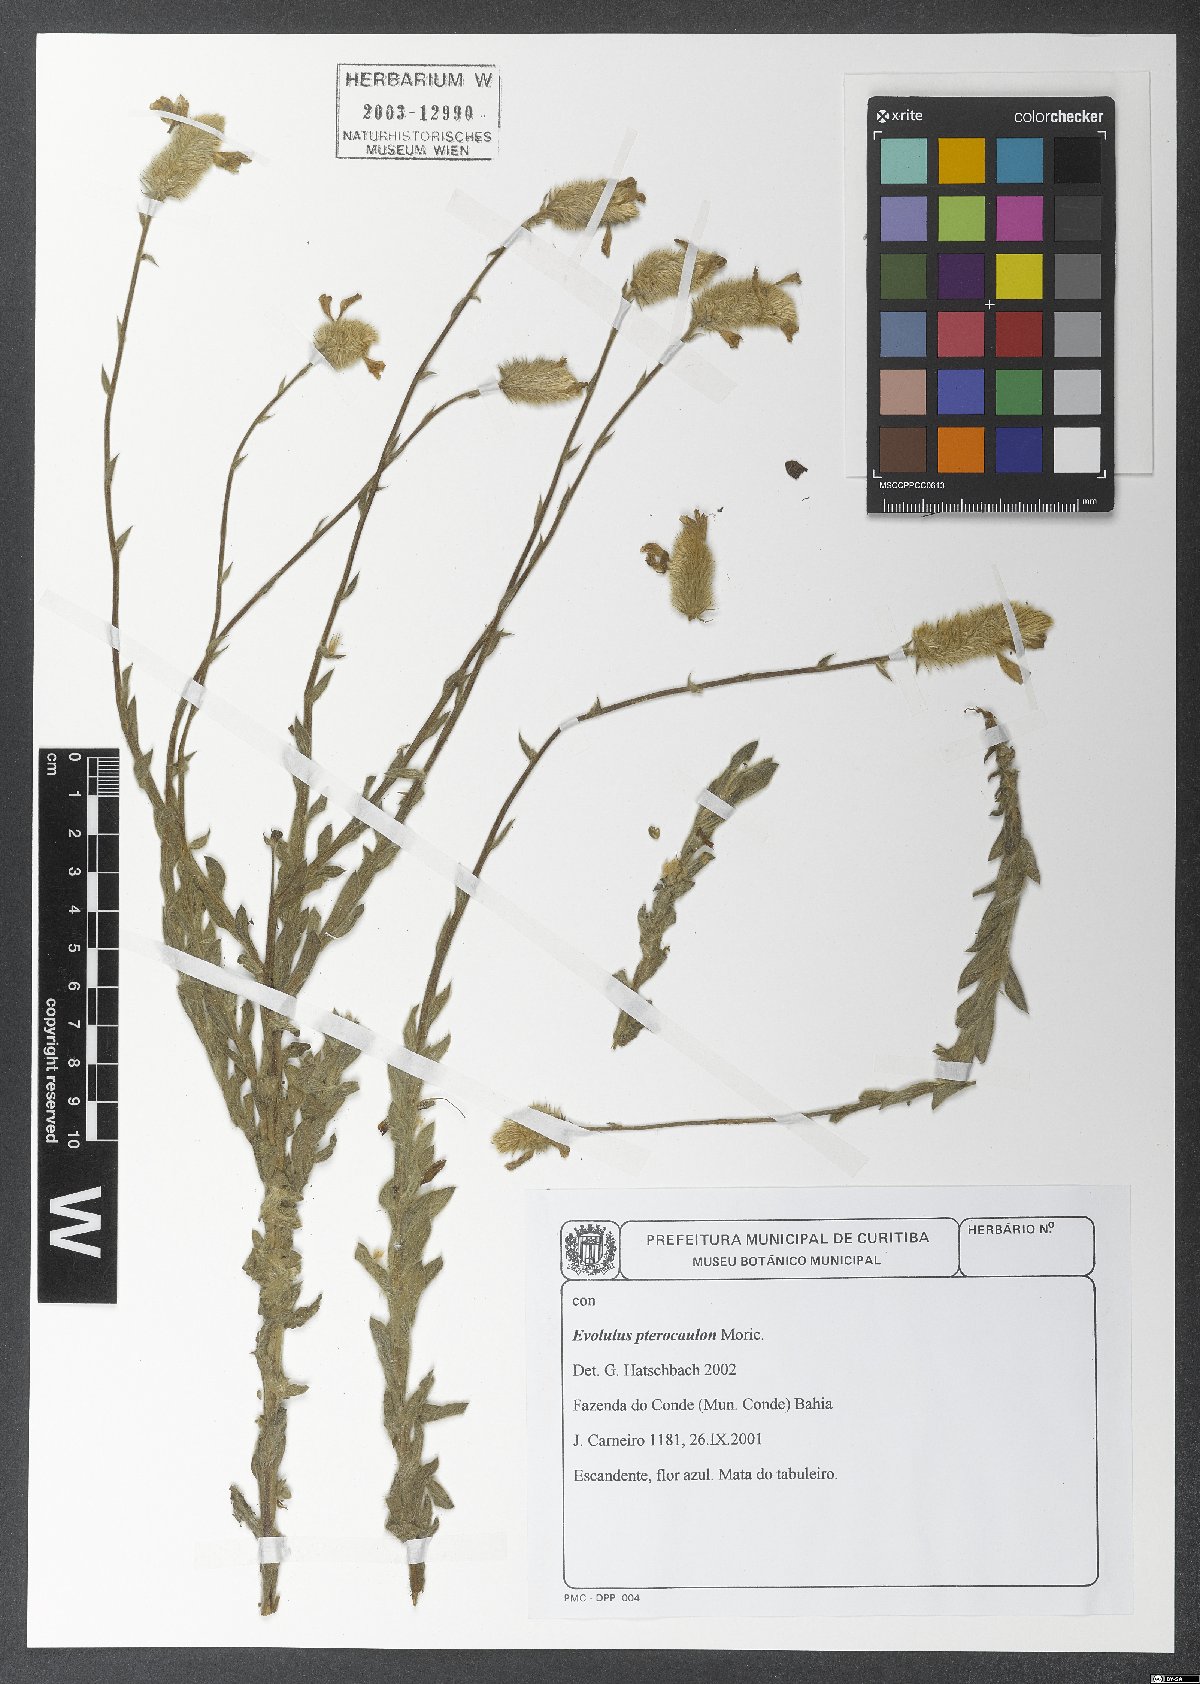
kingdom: Plantae
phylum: Tracheophyta
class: Magnoliopsida
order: Solanales
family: Convolvulaceae
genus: Evolvulus
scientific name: Evolvulus pterocaulon
